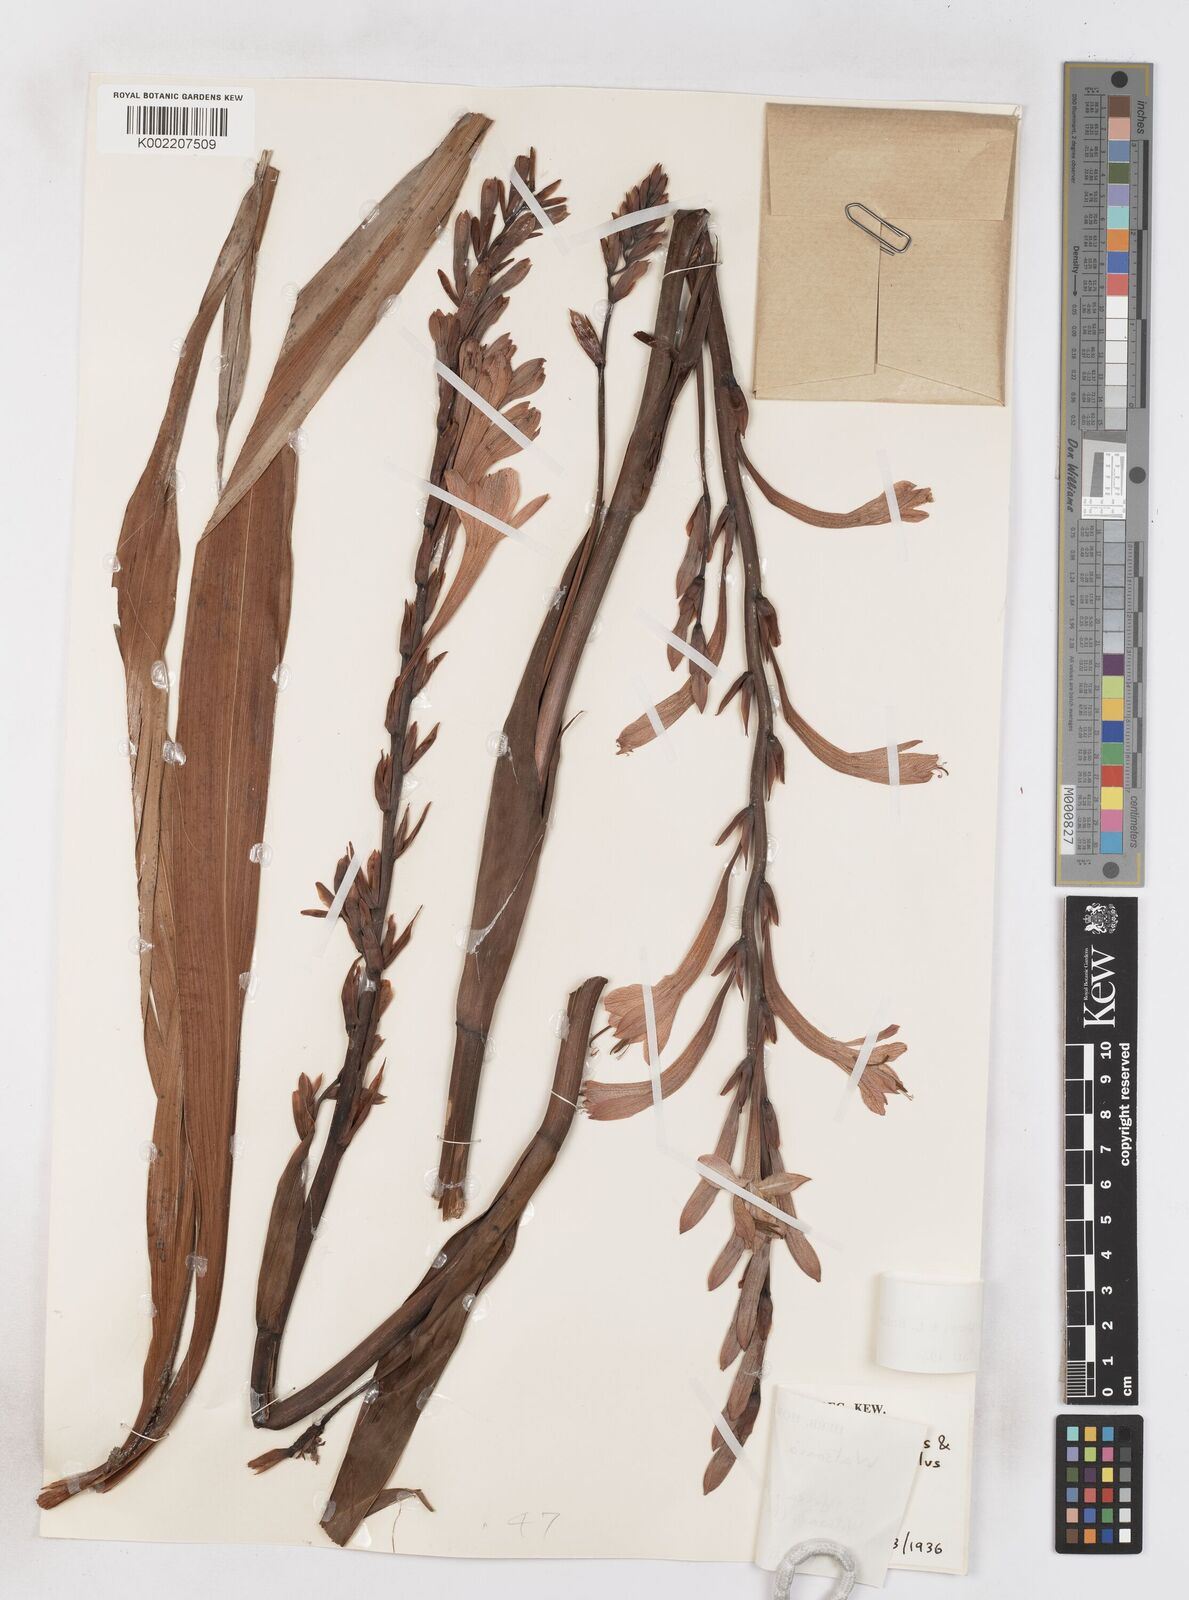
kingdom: Plantae
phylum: Tracheophyta
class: Liliopsida
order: Asparagales
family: Iridaceae
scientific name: Iridaceae
